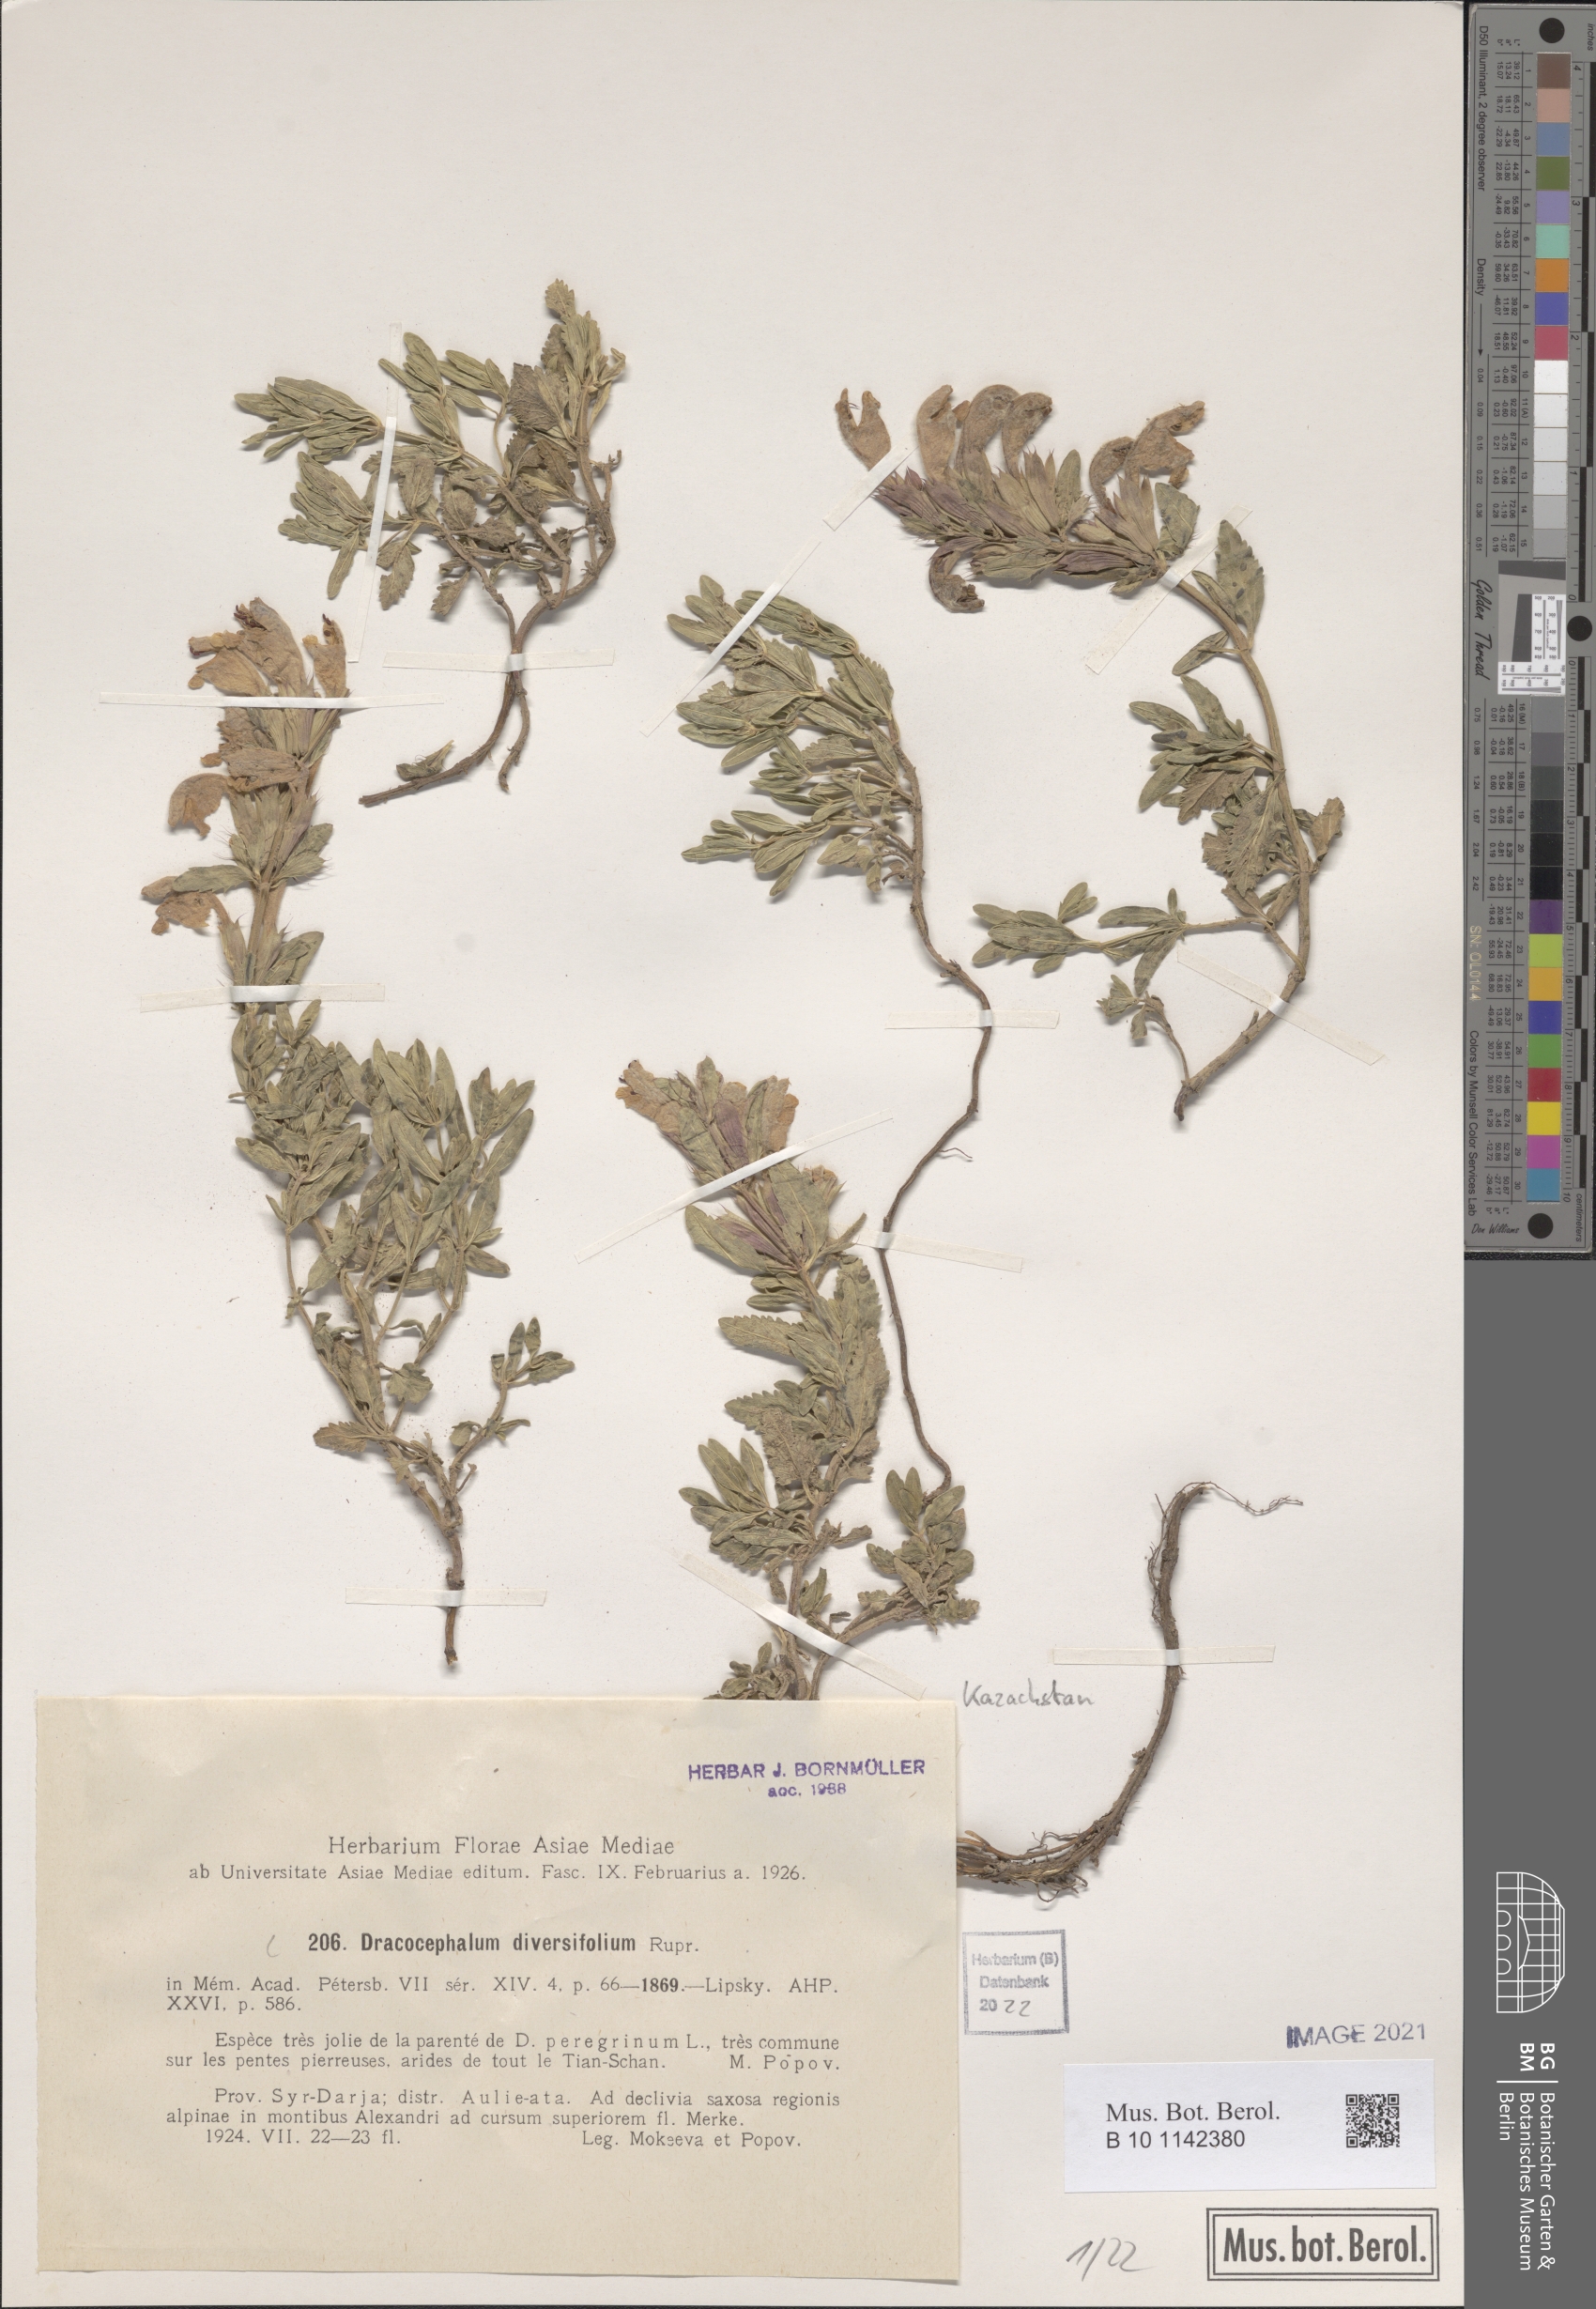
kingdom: Plantae
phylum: Tracheophyta
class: Magnoliopsida
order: Lamiales
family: Lamiaceae
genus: Dracocephalum
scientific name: Dracocephalum diversifolium
